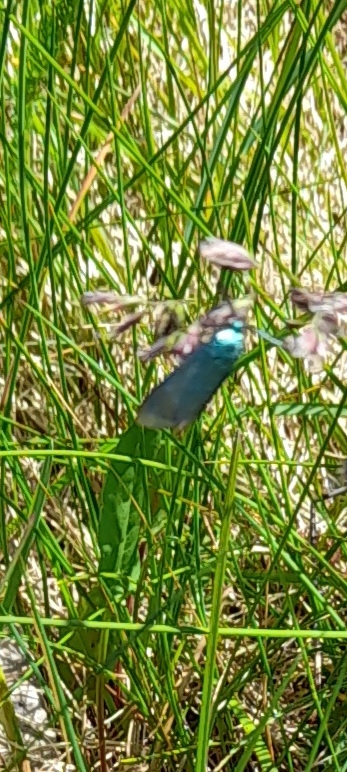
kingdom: Animalia
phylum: Arthropoda
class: Insecta
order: Lepidoptera
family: Zygaenidae
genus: Adscita
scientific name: Adscita statices
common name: Metalvinge
